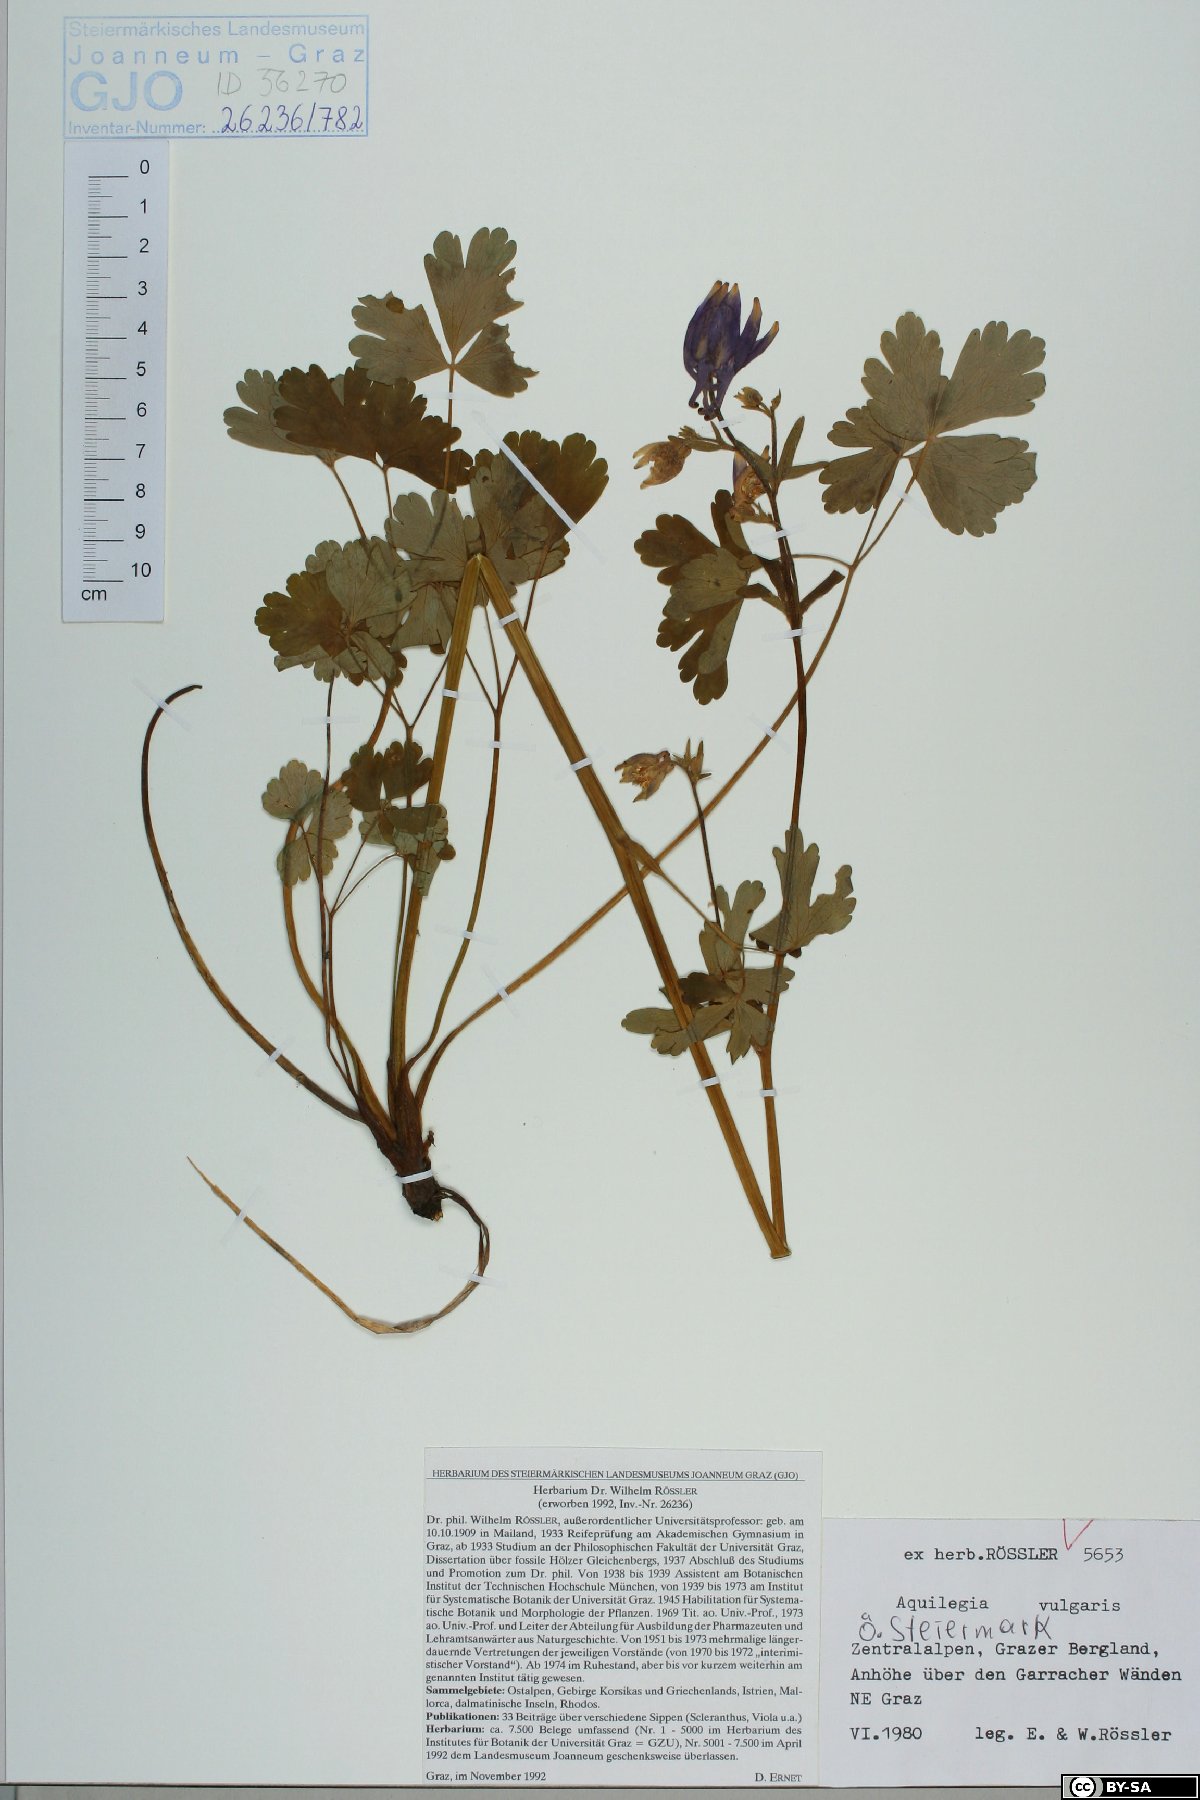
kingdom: Plantae
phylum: Tracheophyta
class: Magnoliopsida
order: Ranunculales
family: Ranunculaceae
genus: Aquilegia
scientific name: Aquilegia vulgaris
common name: Columbine
